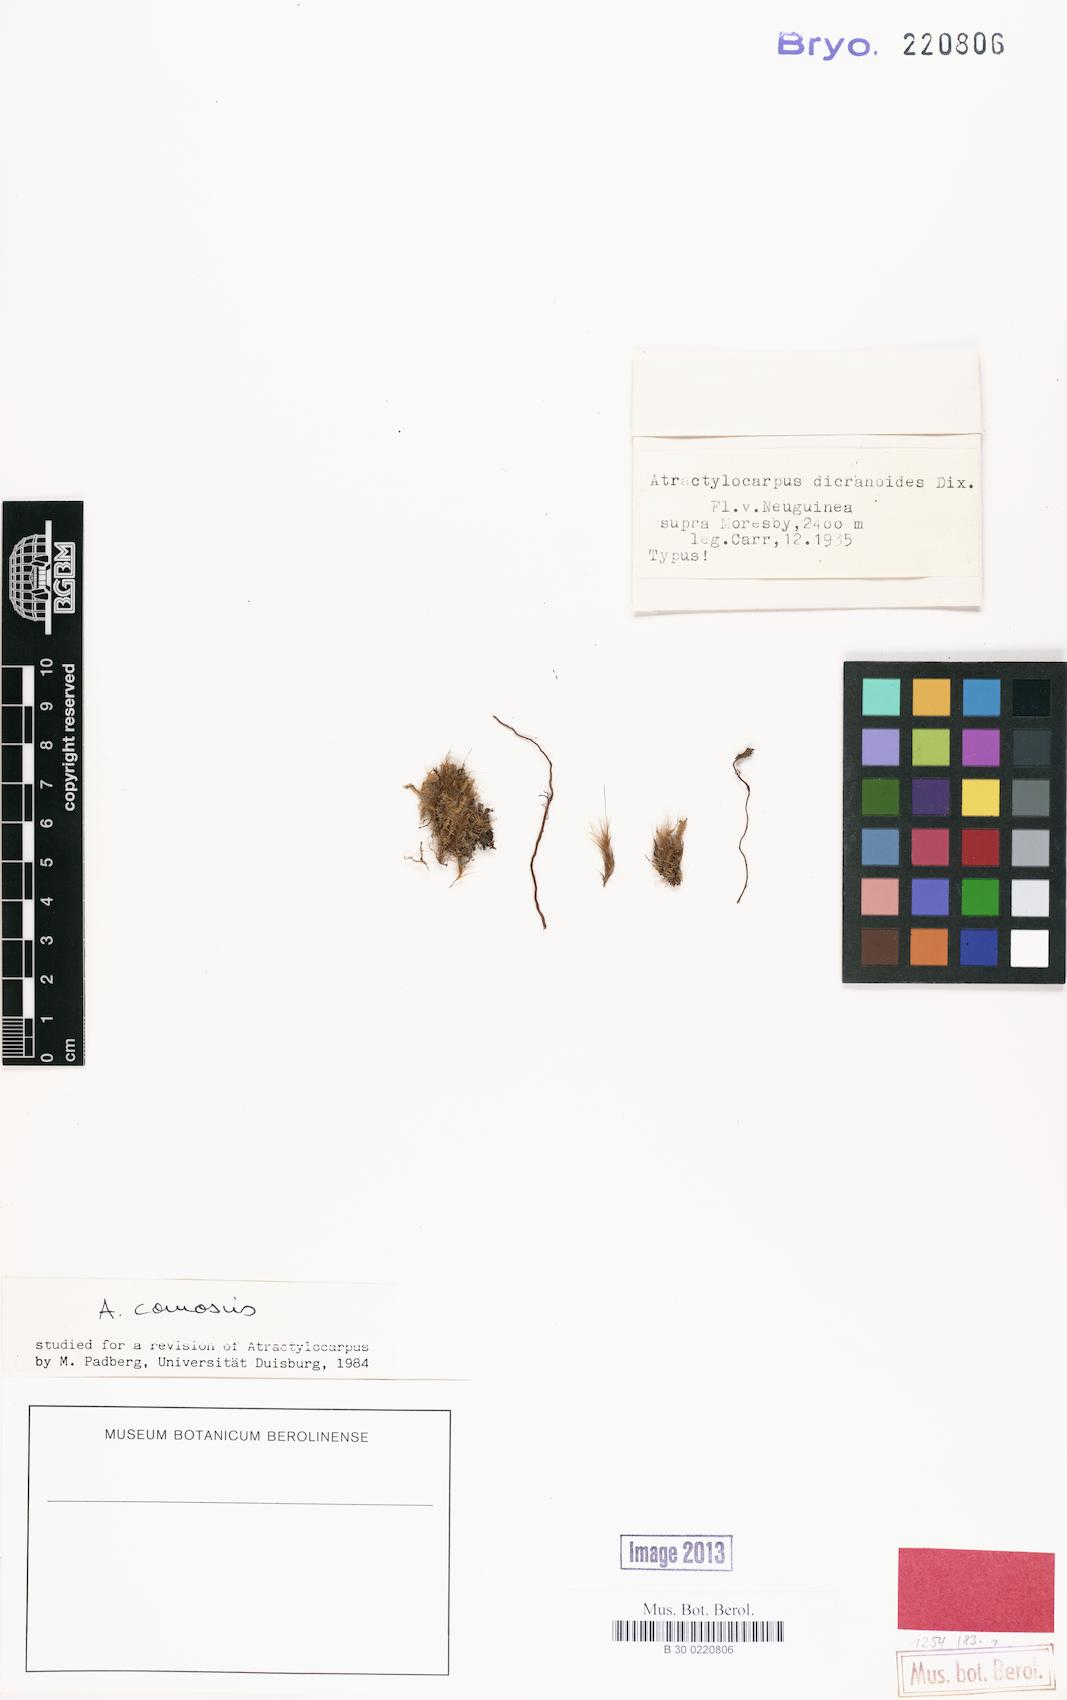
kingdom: Plantae
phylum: Bryophyta
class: Bryopsida
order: Dicranales
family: Leucobryaceae
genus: Atractylocarpus
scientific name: Atractylocarpus novoguinensis
